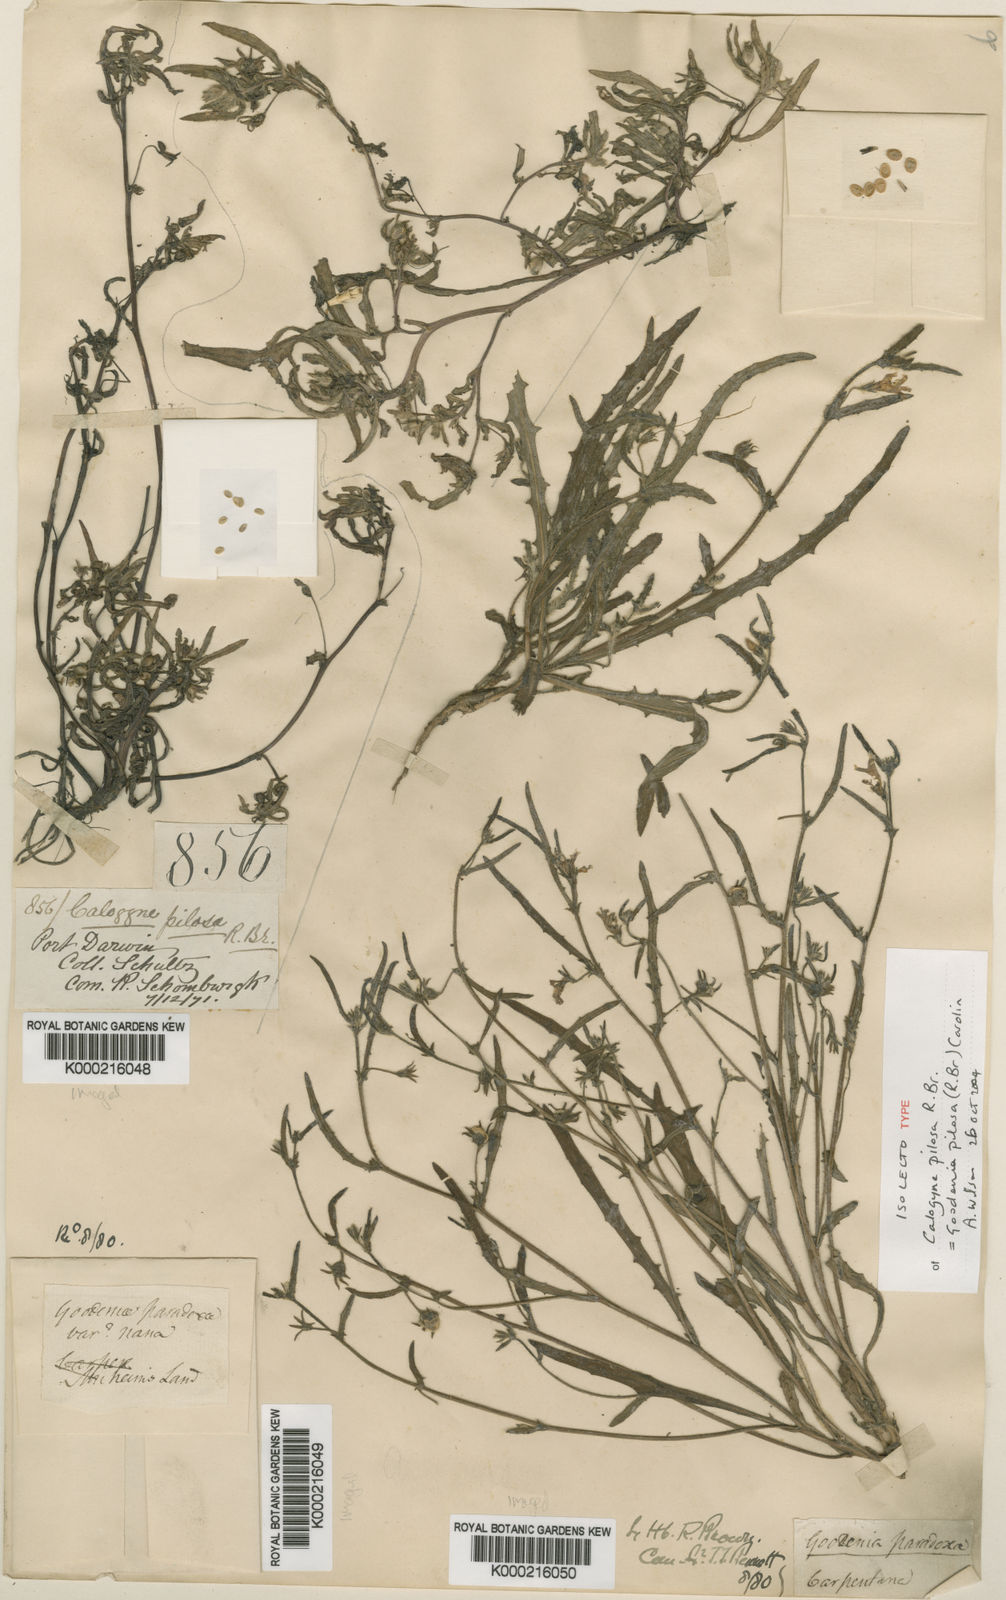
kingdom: Plantae
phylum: Tracheophyta
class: Magnoliopsida
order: Asterales
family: Goodeniaceae
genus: Goodenia
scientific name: Goodenia pilosa
